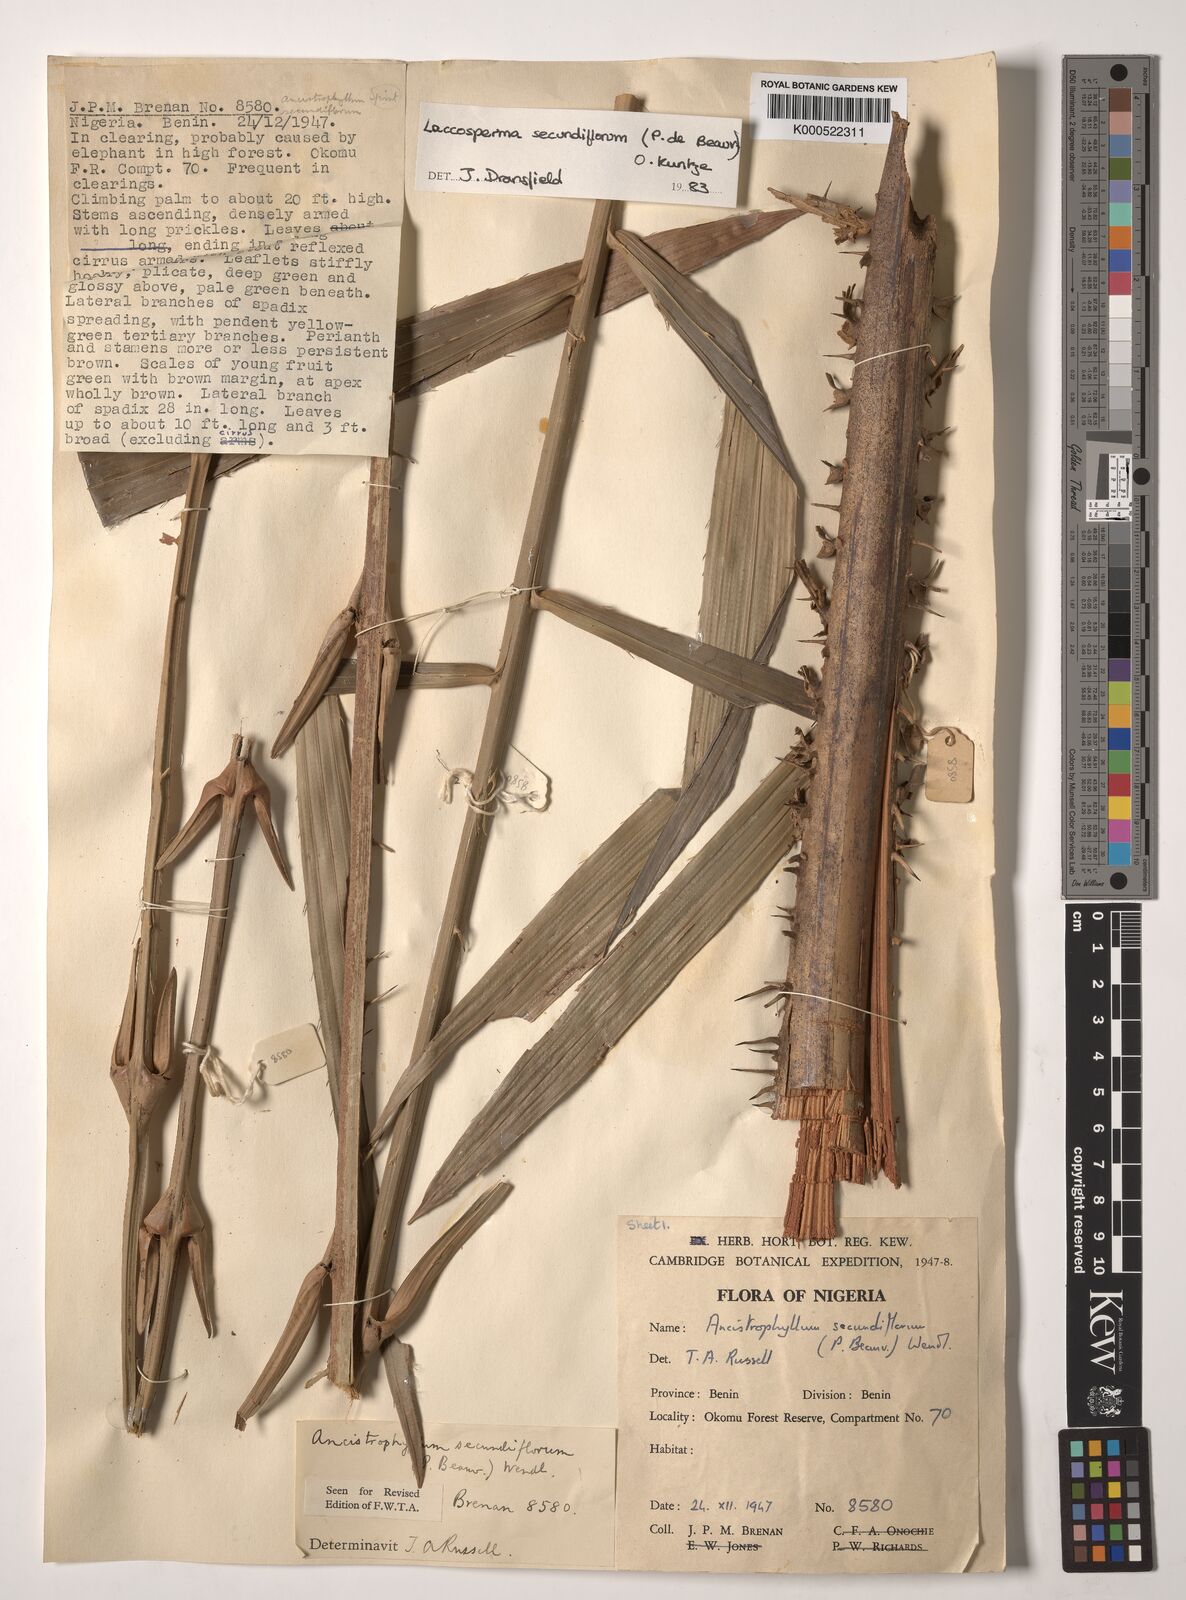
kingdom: Plantae
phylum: Tracheophyta
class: Liliopsida
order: Arecales
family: Arecaceae
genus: Laccosperma
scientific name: Laccosperma secundiflorum
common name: Rattan
